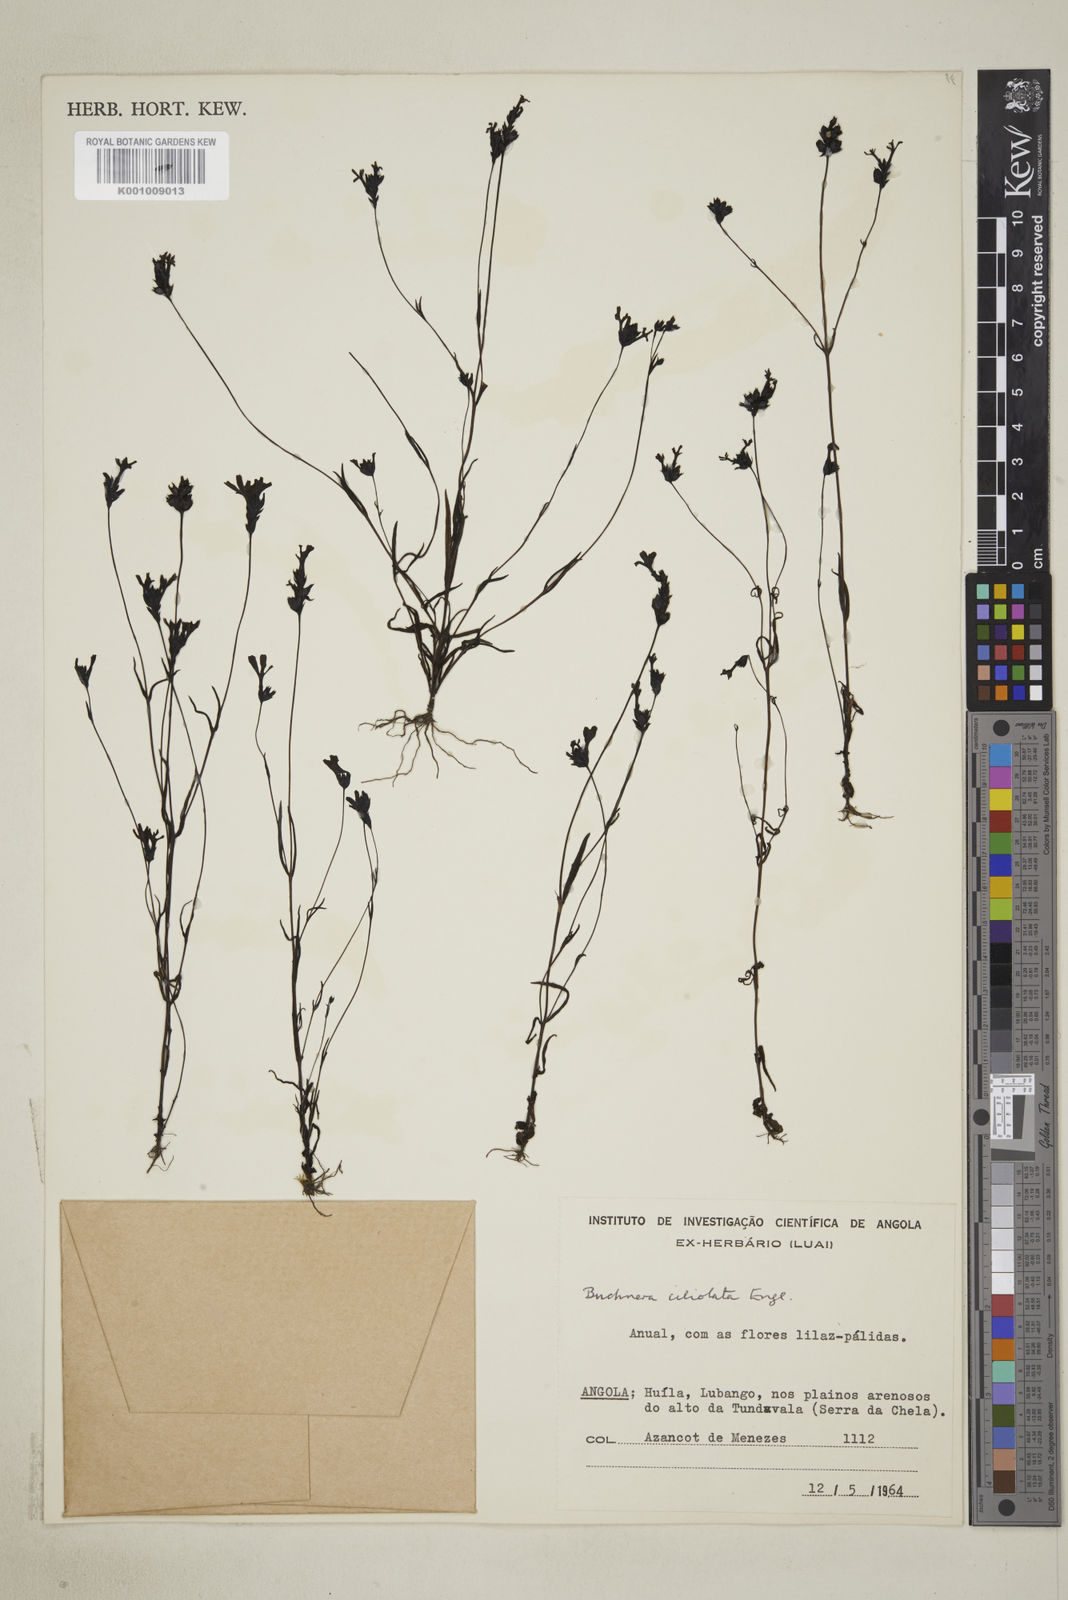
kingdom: Plantae
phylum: Tracheophyta
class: Magnoliopsida
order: Lamiales
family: Orobanchaceae
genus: Buchnera
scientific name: Buchnera ciliolata
